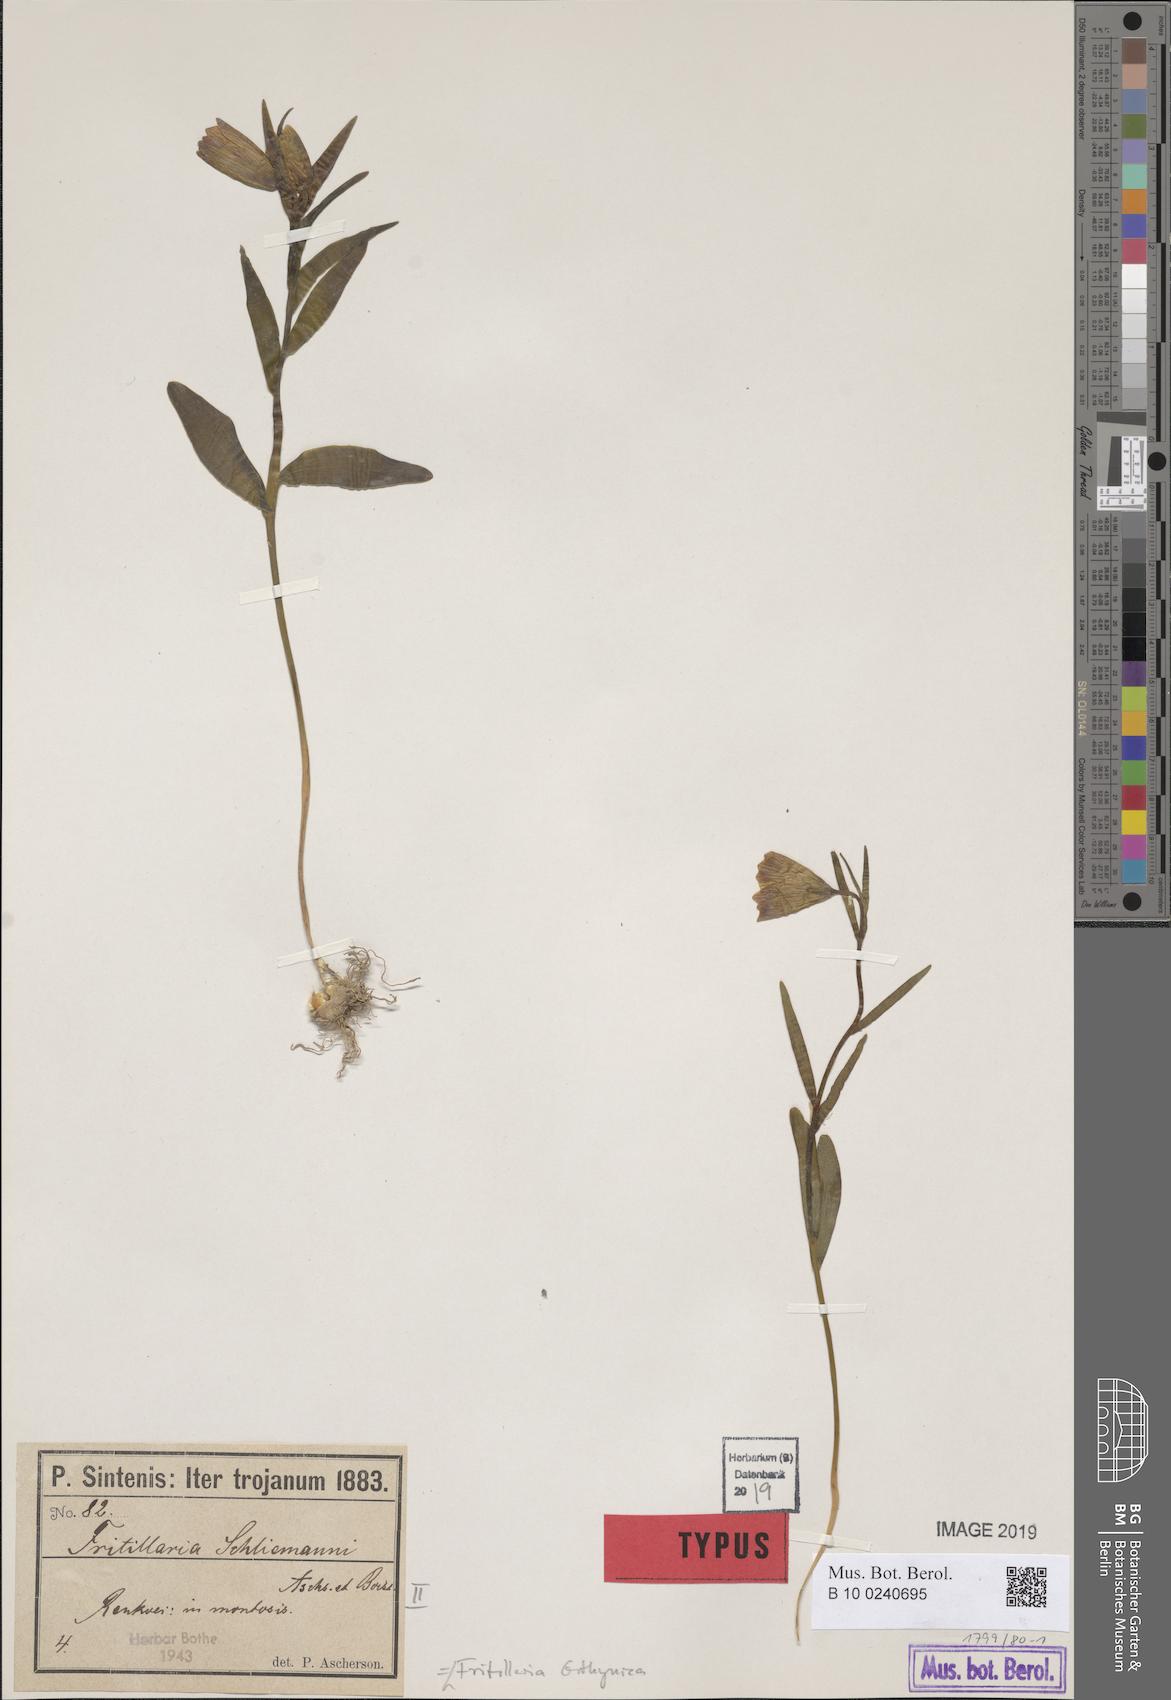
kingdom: Plantae
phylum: Tracheophyta
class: Liliopsida
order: Liliales
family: Liliaceae
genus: Fritillaria
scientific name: Fritillaria bithynica
